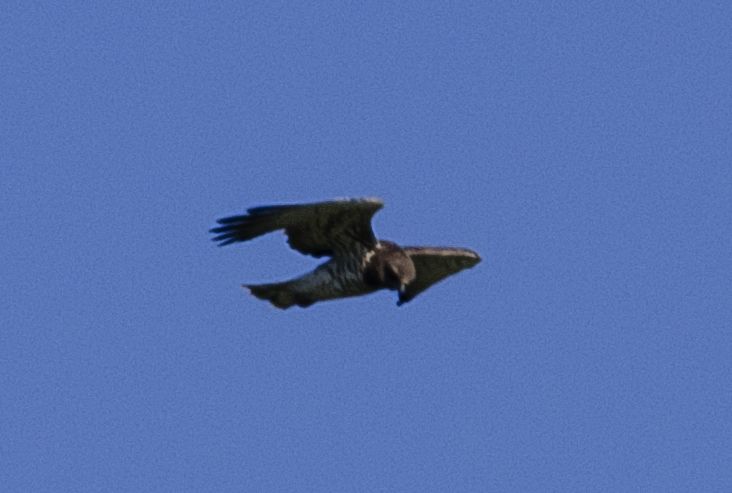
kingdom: Animalia
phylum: Chordata
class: Aves
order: Accipitriformes
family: Accipitridae
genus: Circaetus
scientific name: Circaetus gallicus
